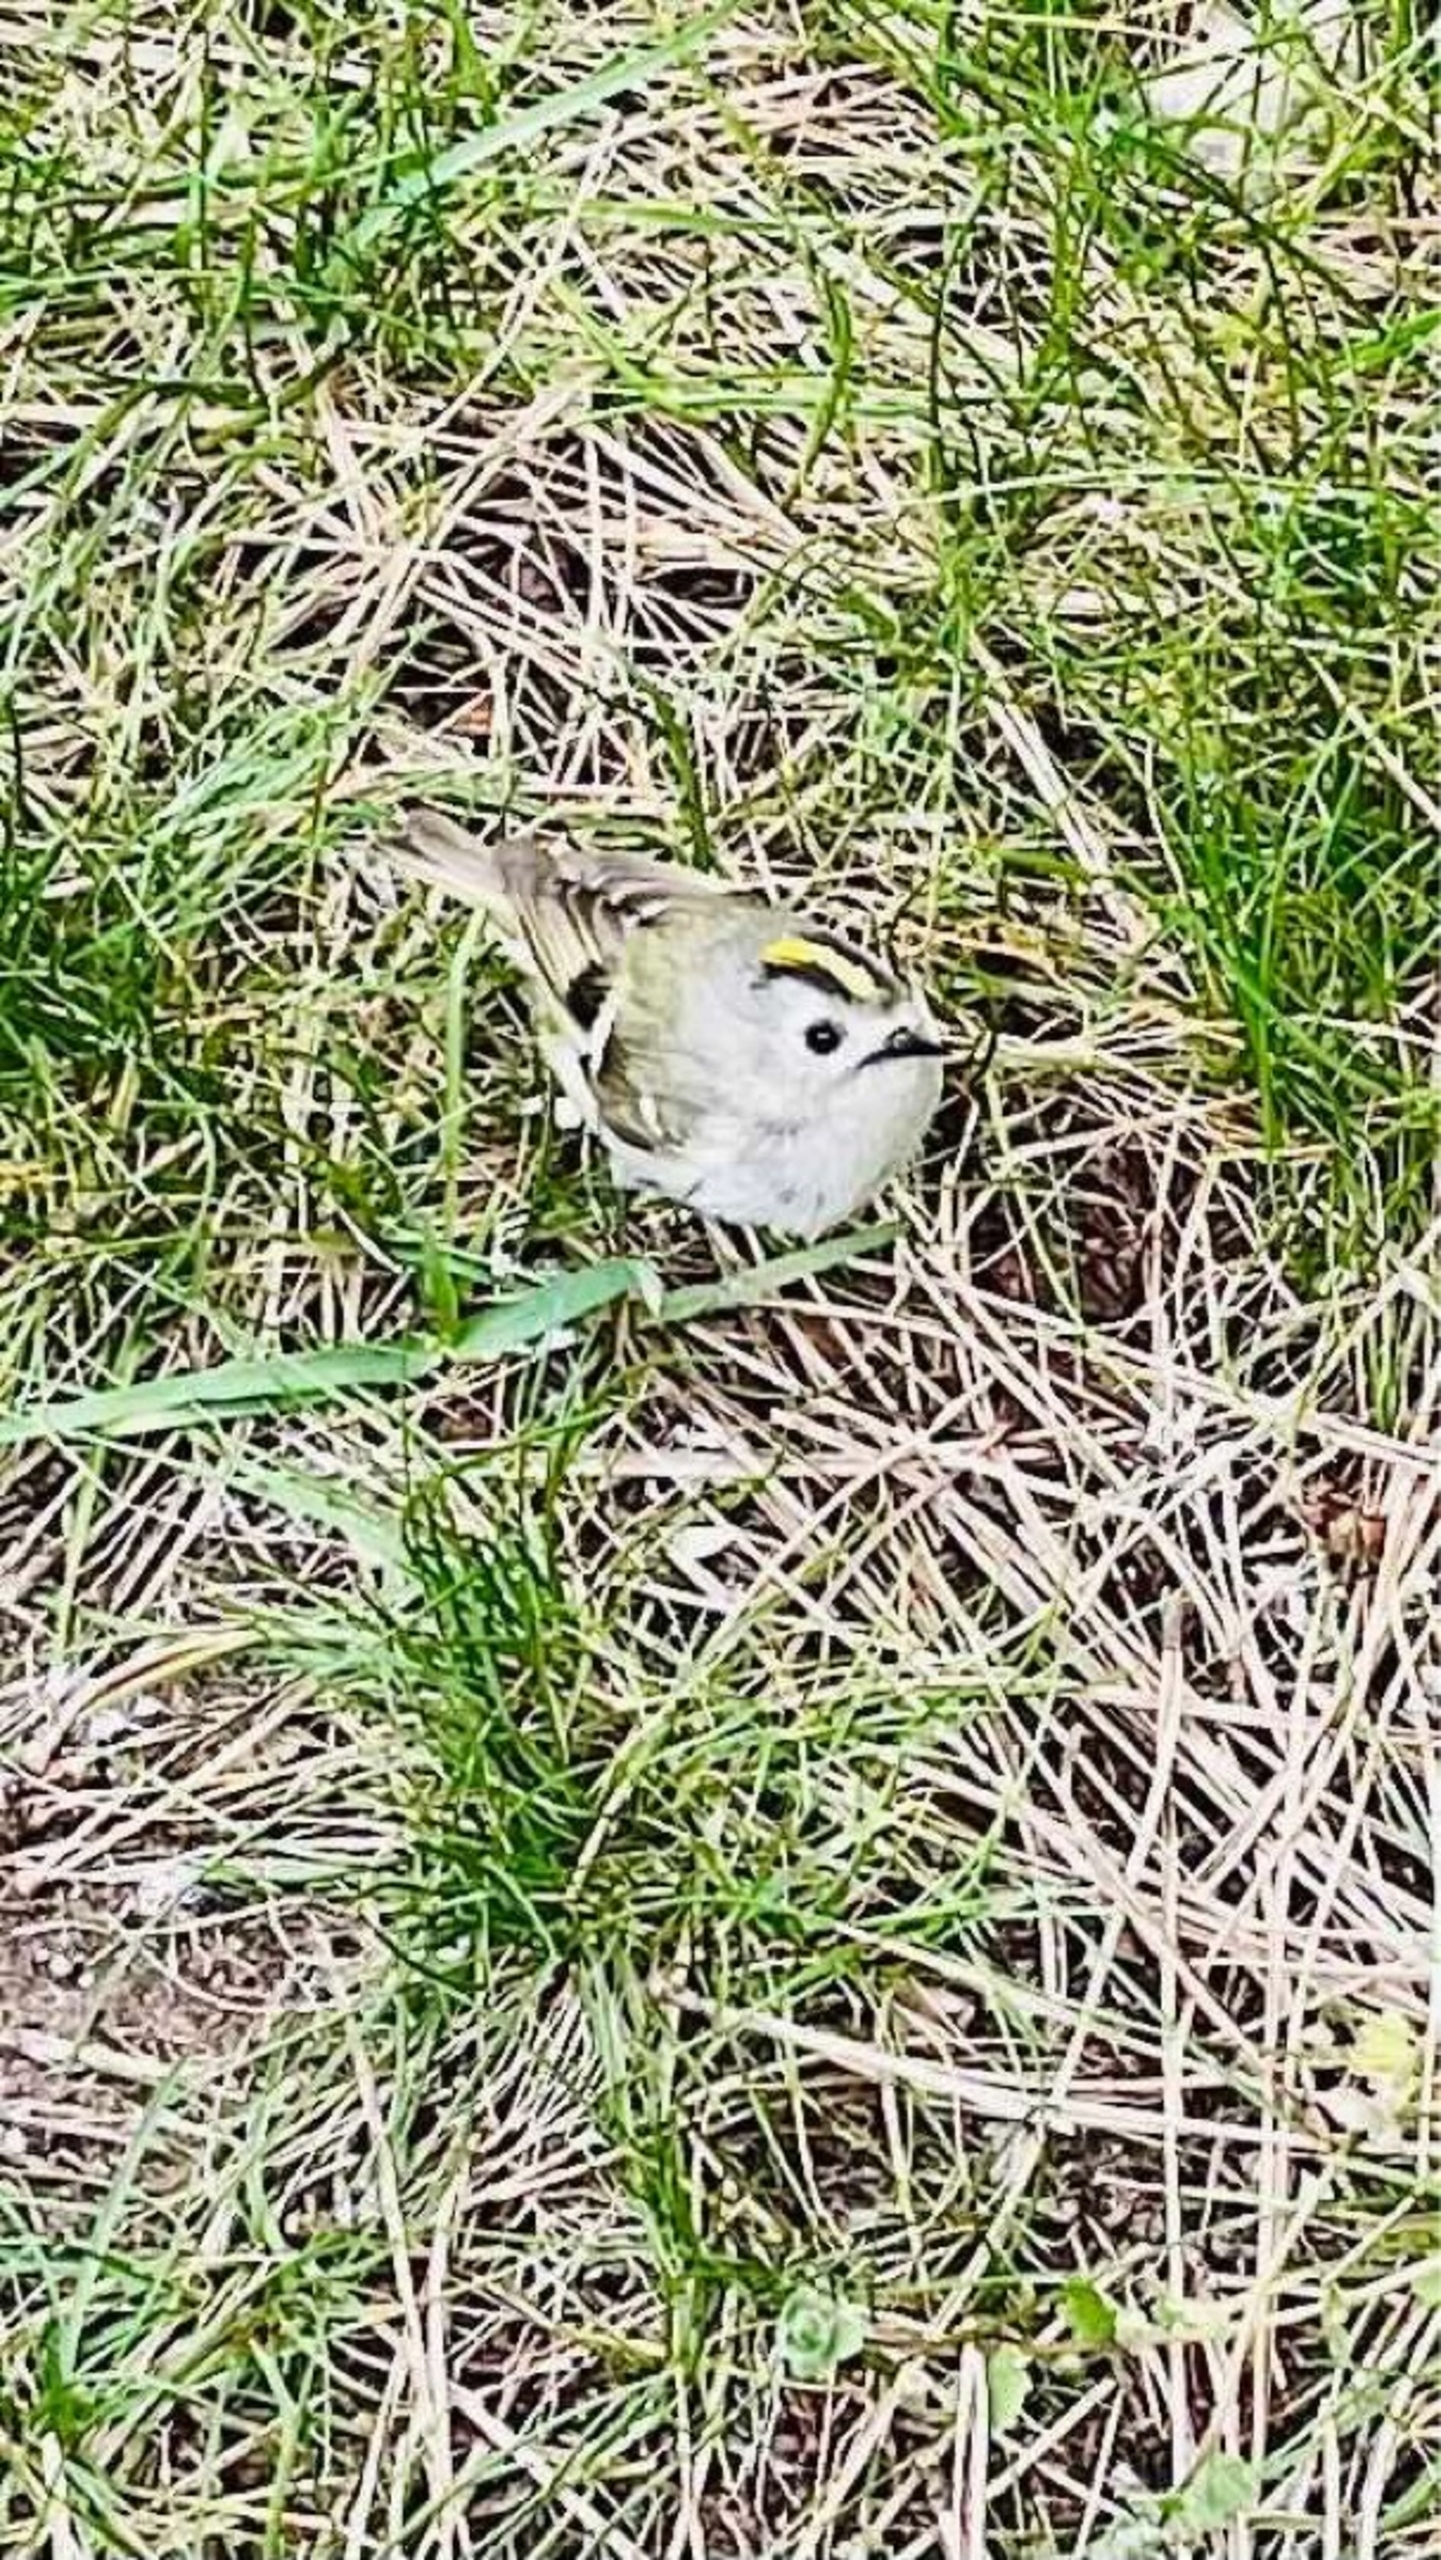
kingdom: Animalia
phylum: Chordata
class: Aves
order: Passeriformes
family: Regulidae
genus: Regulus
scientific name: Regulus regulus
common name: Fuglekonge
